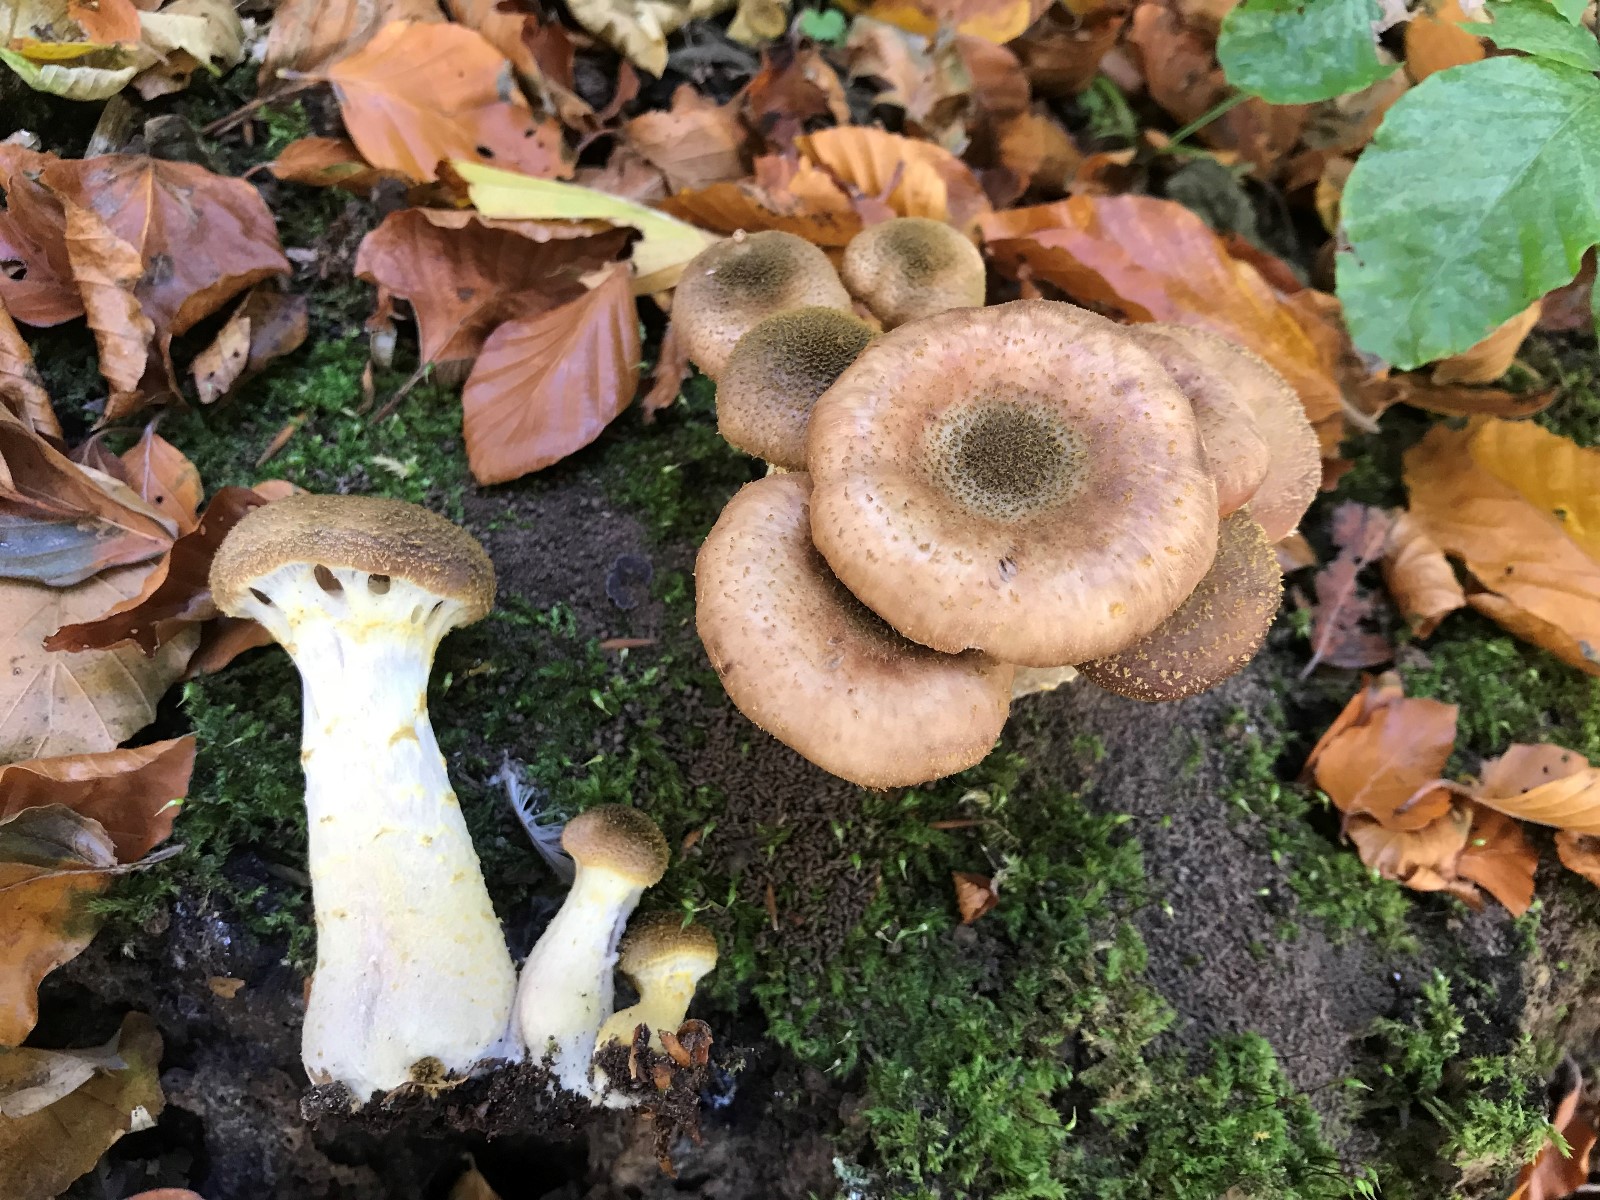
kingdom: Fungi
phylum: Basidiomycota
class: Agaricomycetes
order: Agaricales
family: Physalacriaceae
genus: Armillaria
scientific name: Armillaria lutea
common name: køllestokket honningsvamp
